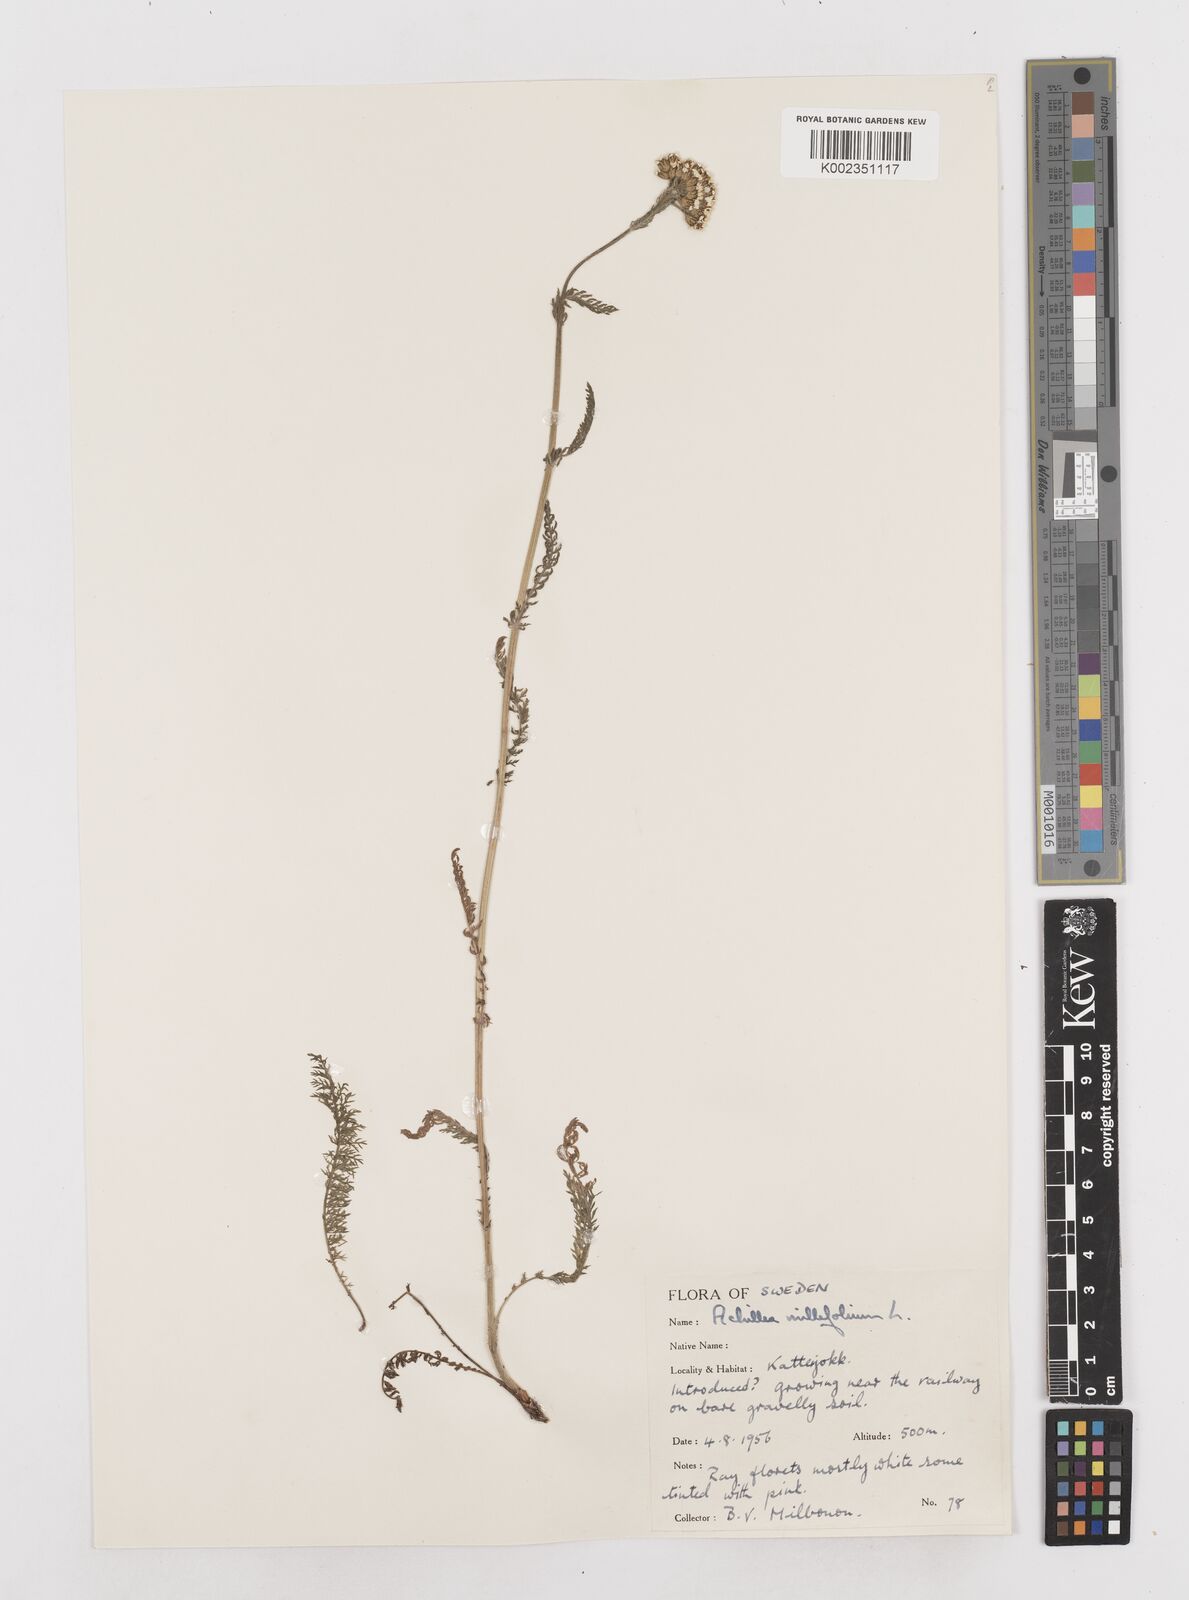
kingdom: Plantae
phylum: Tracheophyta
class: Magnoliopsida
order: Asterales
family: Asteraceae
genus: Achillea
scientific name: Achillea millefolium
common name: Yarrow
